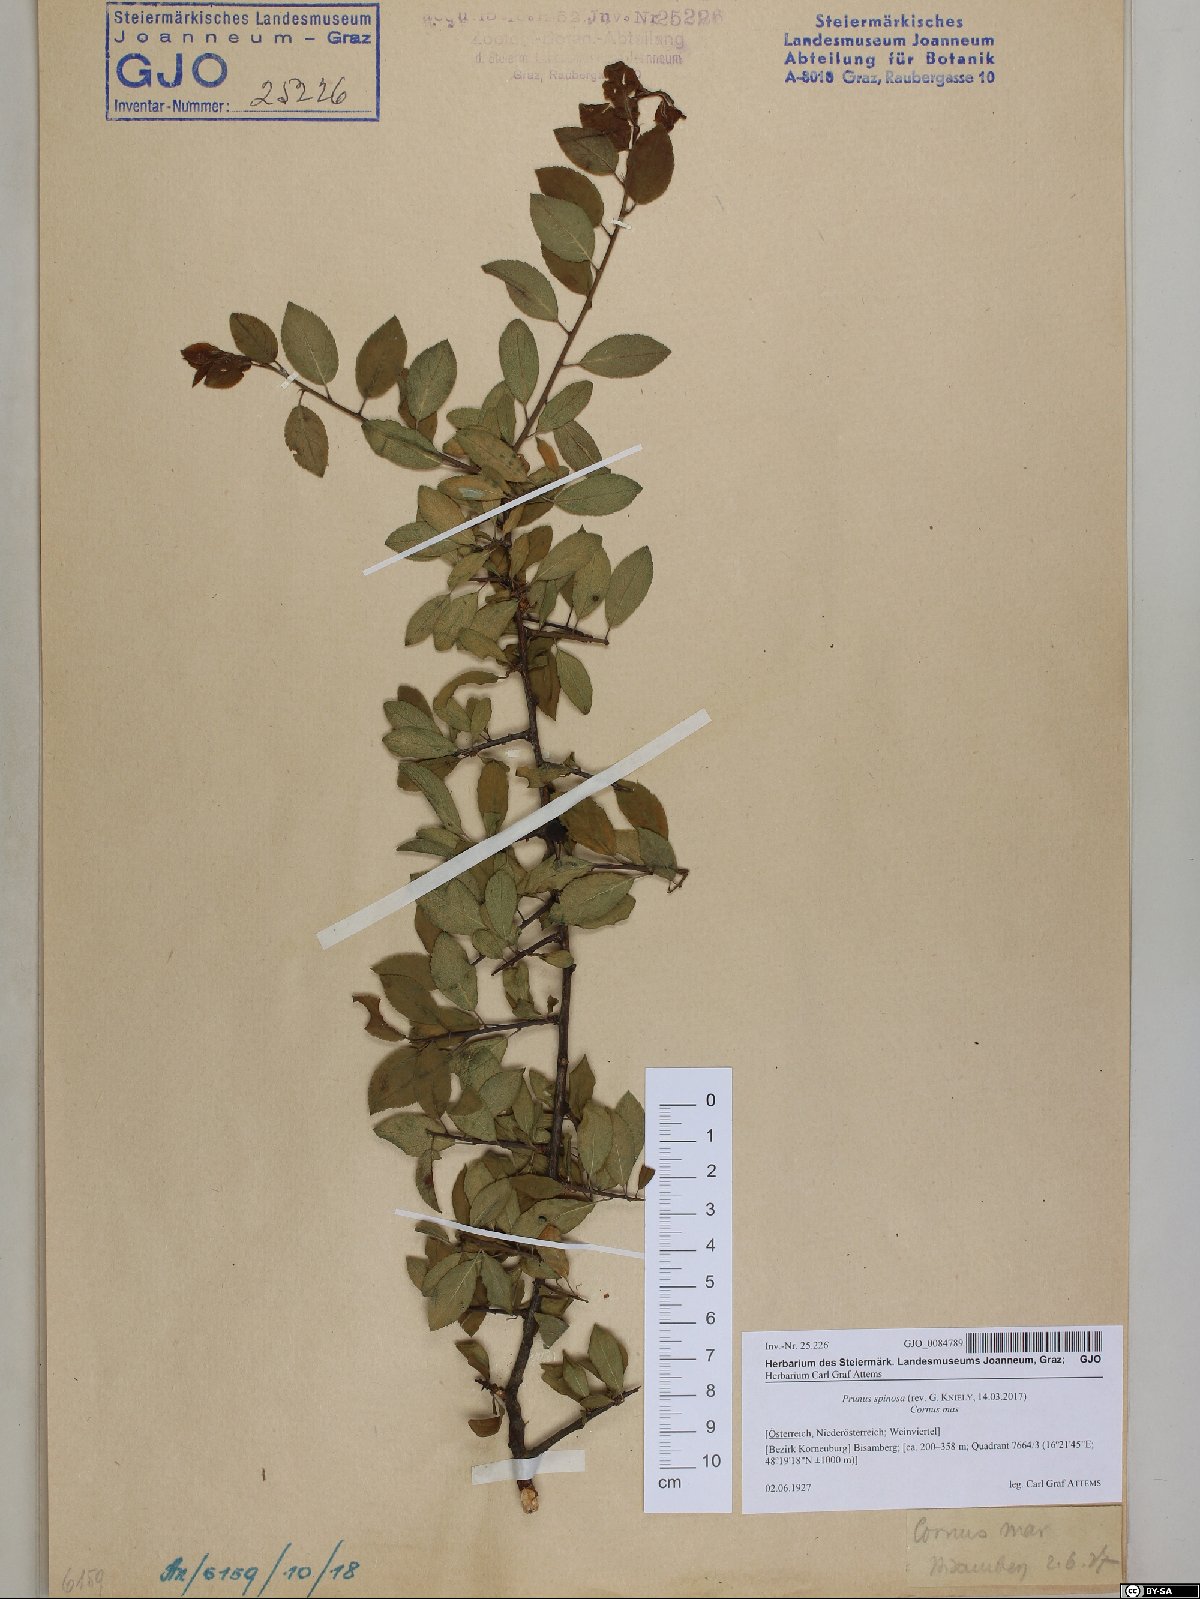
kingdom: Plantae
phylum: Tracheophyta
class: Magnoliopsida
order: Rosales
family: Rosaceae
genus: Prunus
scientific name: Prunus spinosa
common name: Blackthorn
